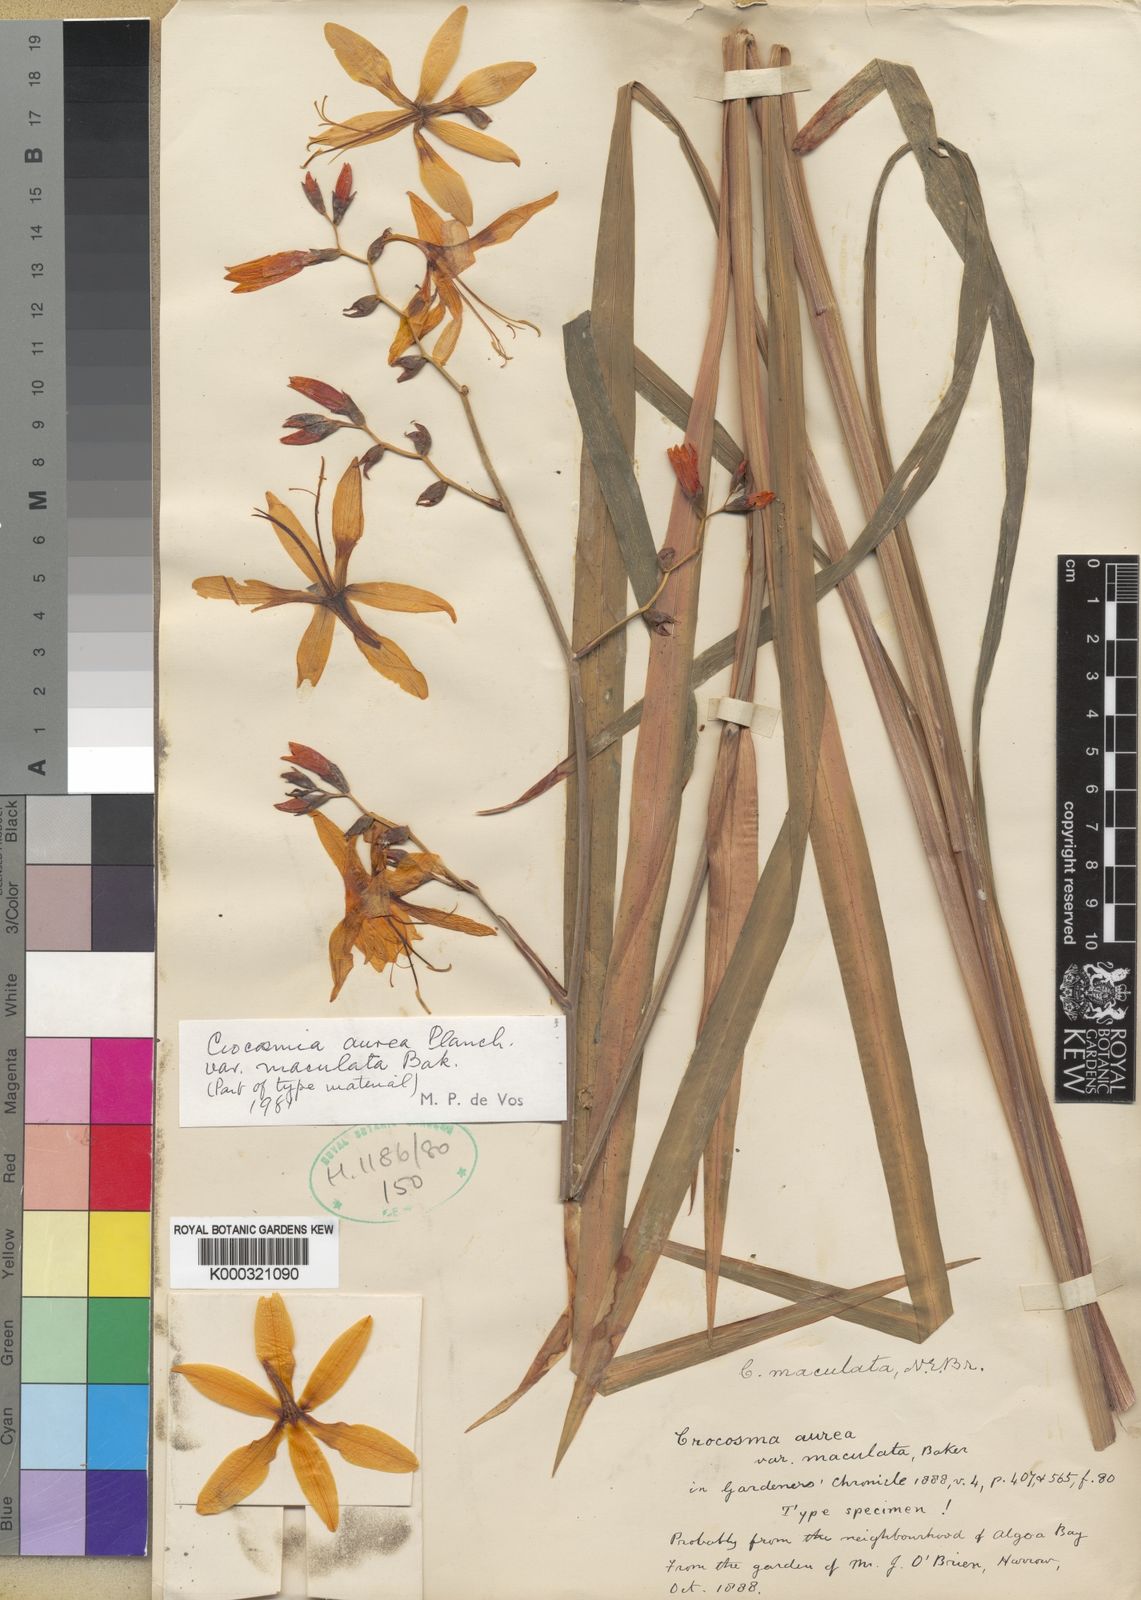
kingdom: Plantae
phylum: Tracheophyta
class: Liliopsida
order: Asparagales
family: Iridaceae
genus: Crocosmia
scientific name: Crocosmia aurea
